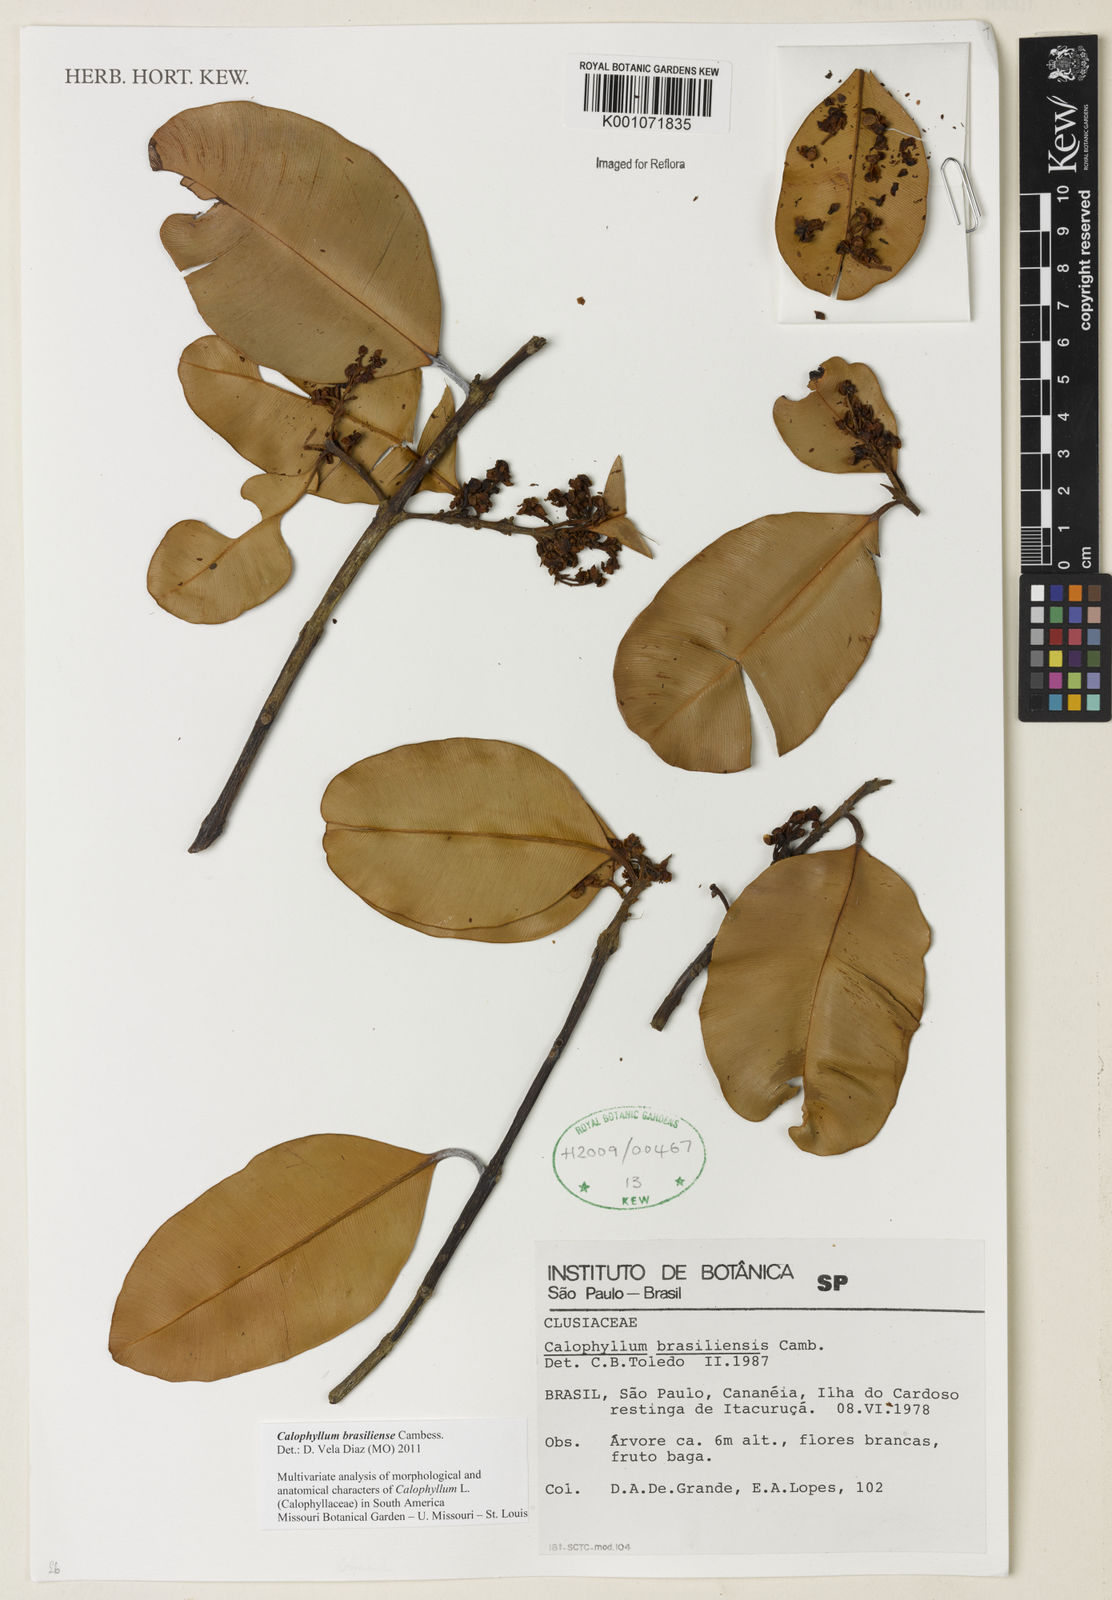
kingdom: Plantae
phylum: Tracheophyta
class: Magnoliopsida
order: Malpighiales
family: Calophyllaceae
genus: Calophyllum
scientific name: Calophyllum brasiliense
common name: Santa maria
